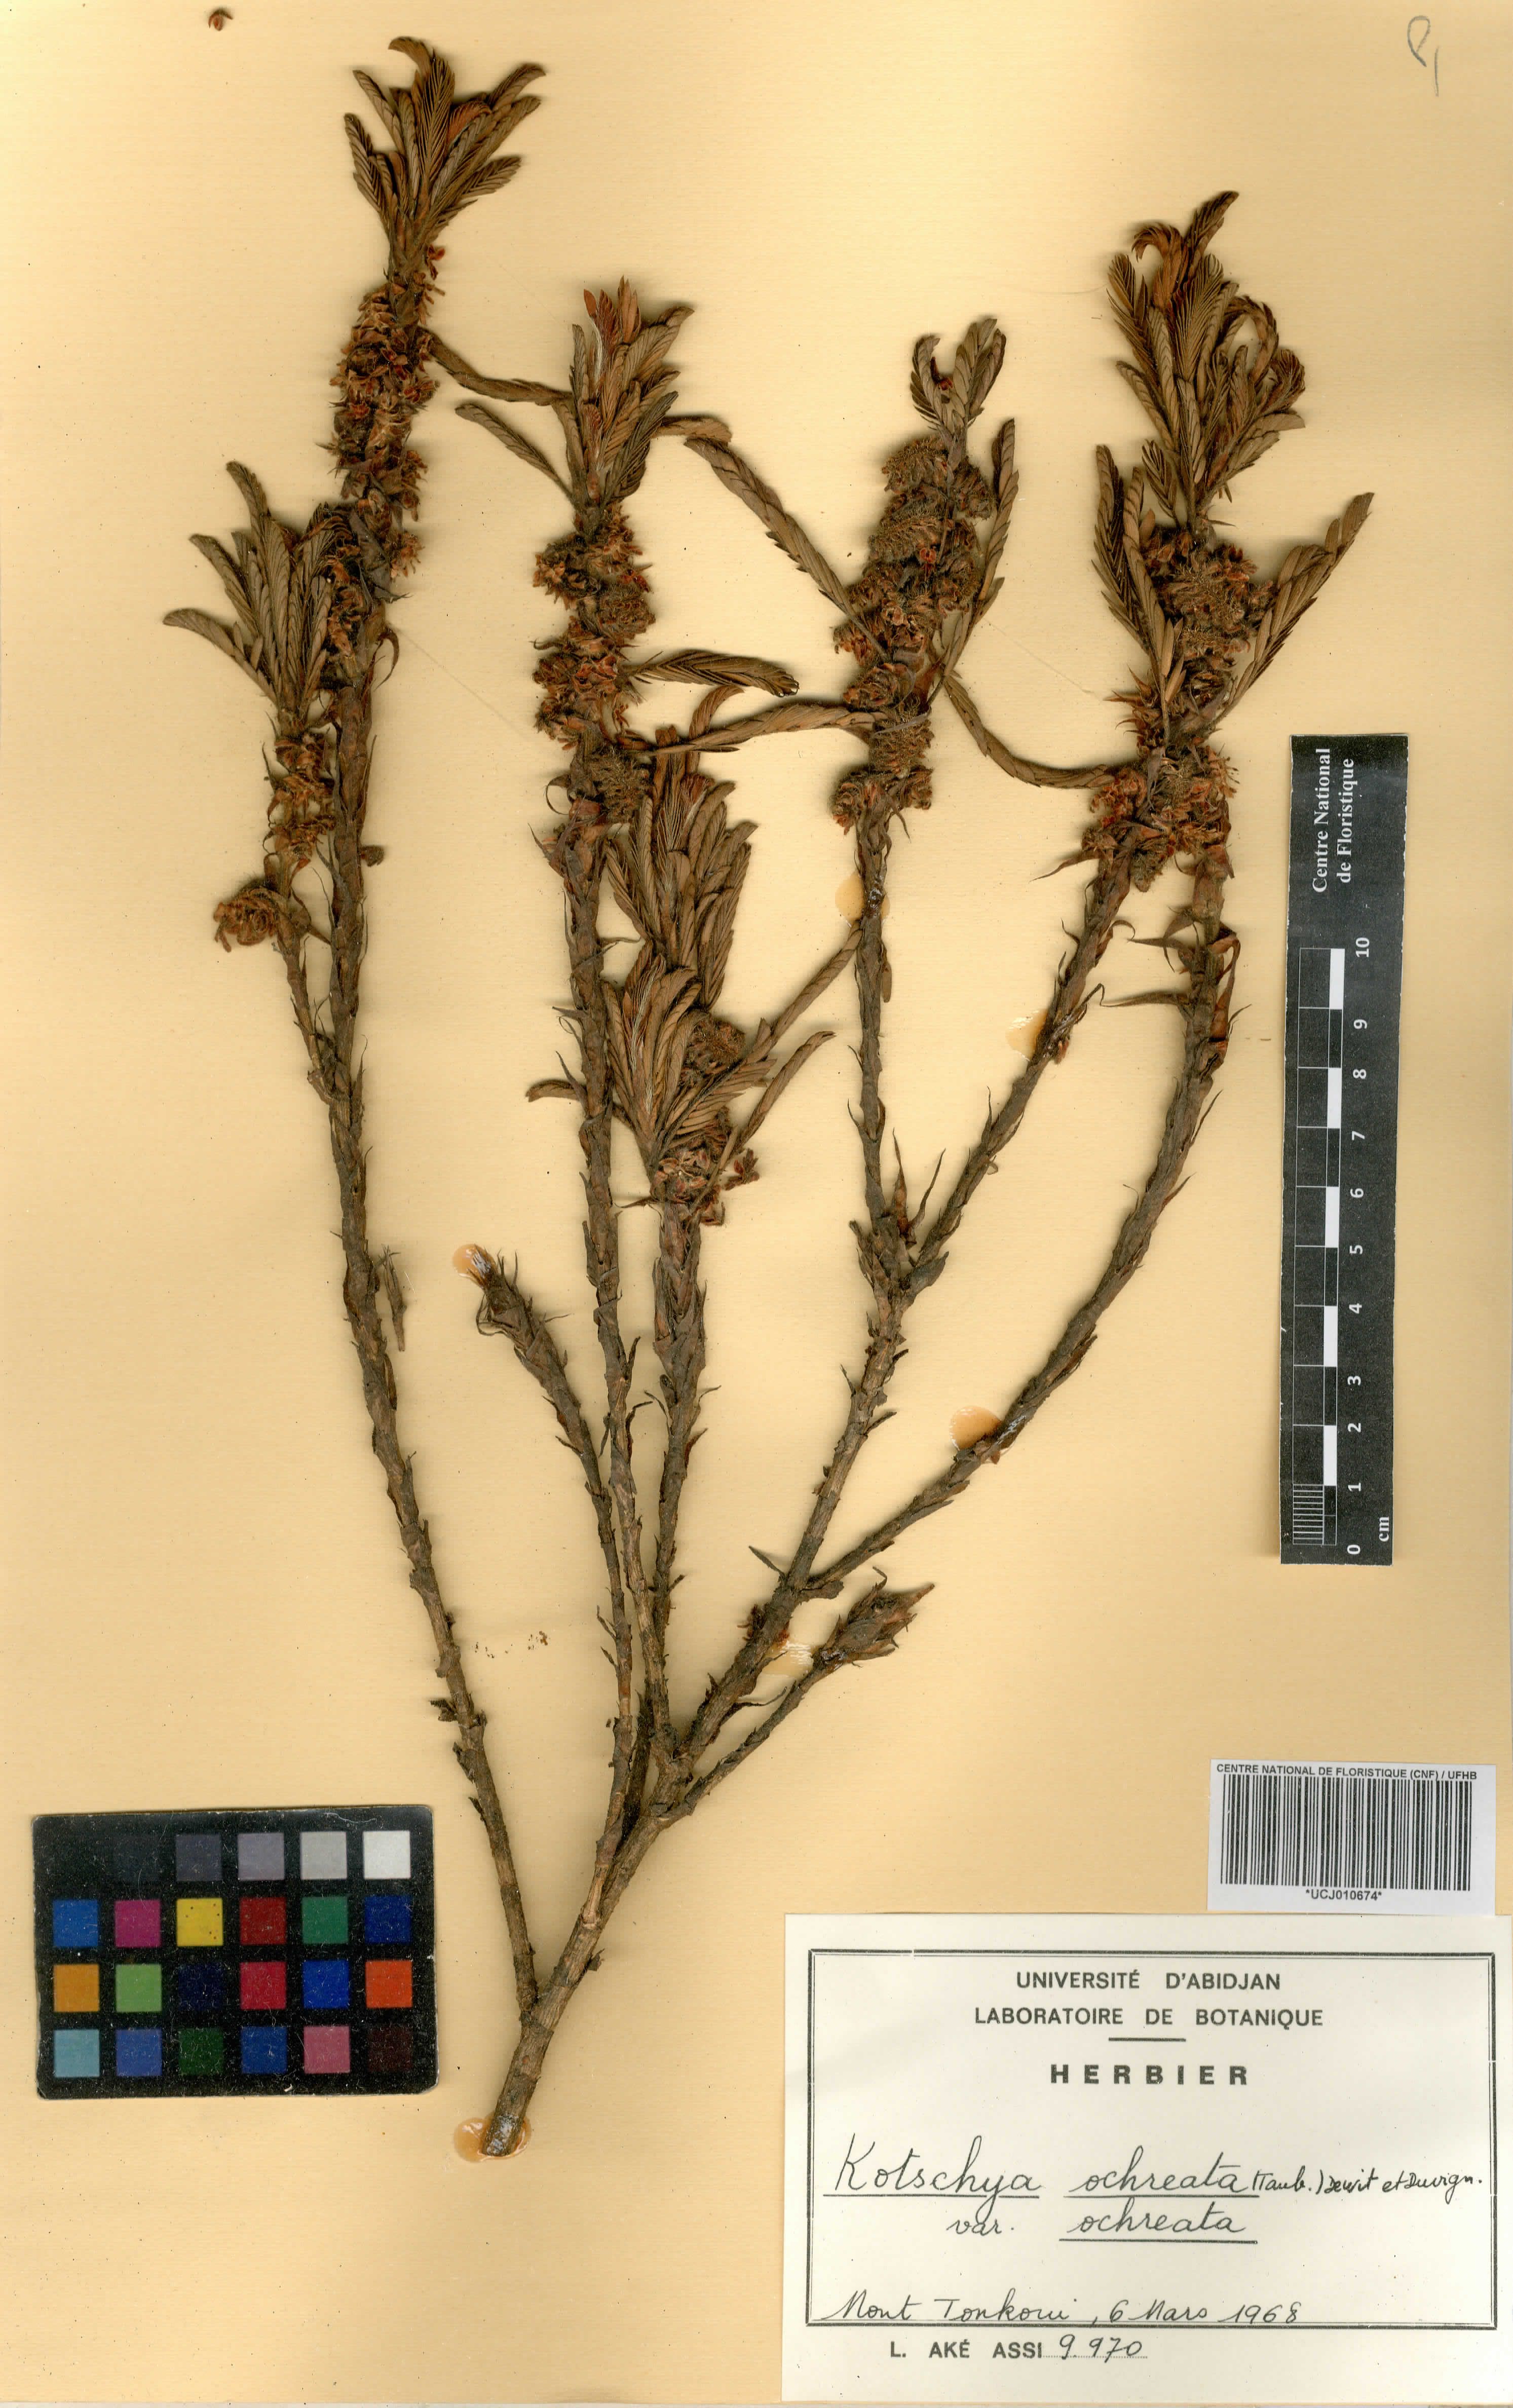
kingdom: Plantae
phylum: Tracheophyta
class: Magnoliopsida
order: Fabales
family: Fabaceae
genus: Kotschya
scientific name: Kotschya ochreata
